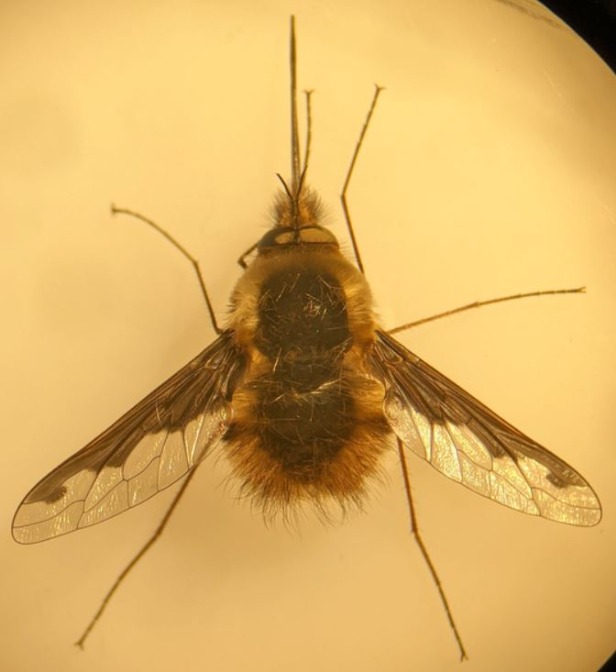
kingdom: Animalia
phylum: Arthropoda
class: Insecta
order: Diptera
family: Bombyliidae
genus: Bombylius
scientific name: Bombylius major
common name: Stor humleflue
